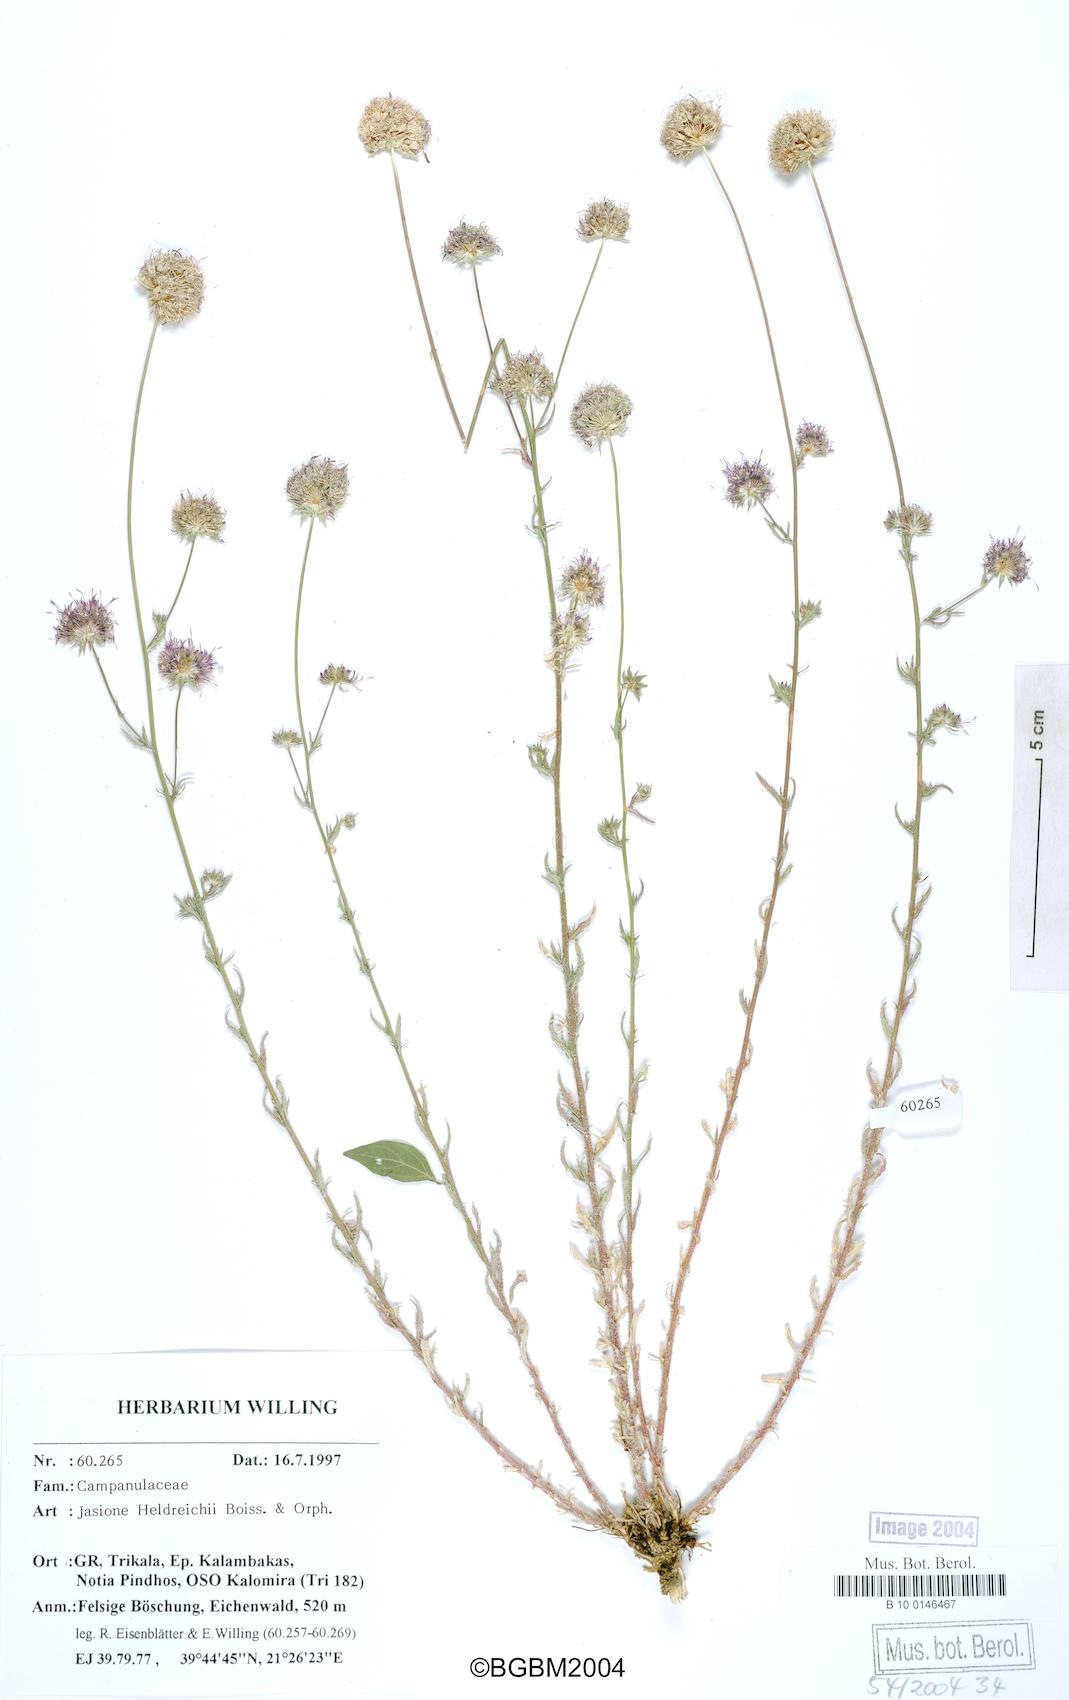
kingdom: Plantae
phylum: Tracheophyta
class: Magnoliopsida
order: Asterales
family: Campanulaceae
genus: Jasione
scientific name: Jasione heldreichii
